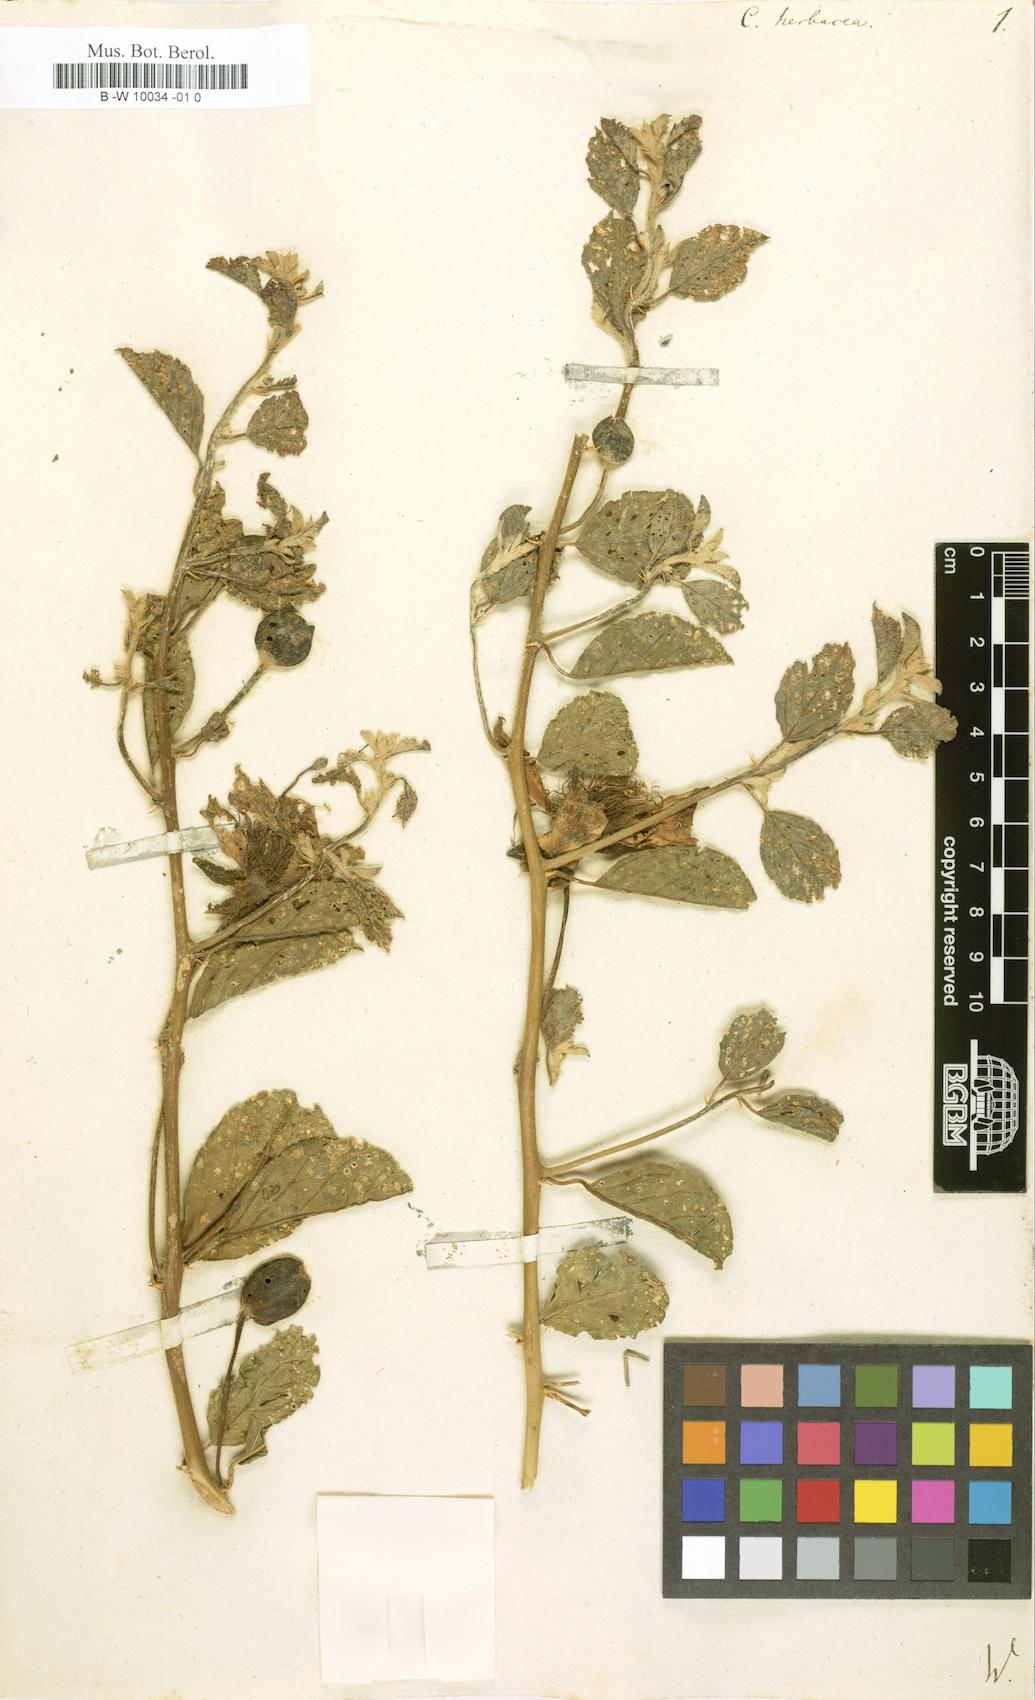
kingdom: Plantae
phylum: Tracheophyta
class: Magnoliopsida
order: Brassicales
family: Capparaceae
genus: Capparis
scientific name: Capparis spinosa
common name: Caper
